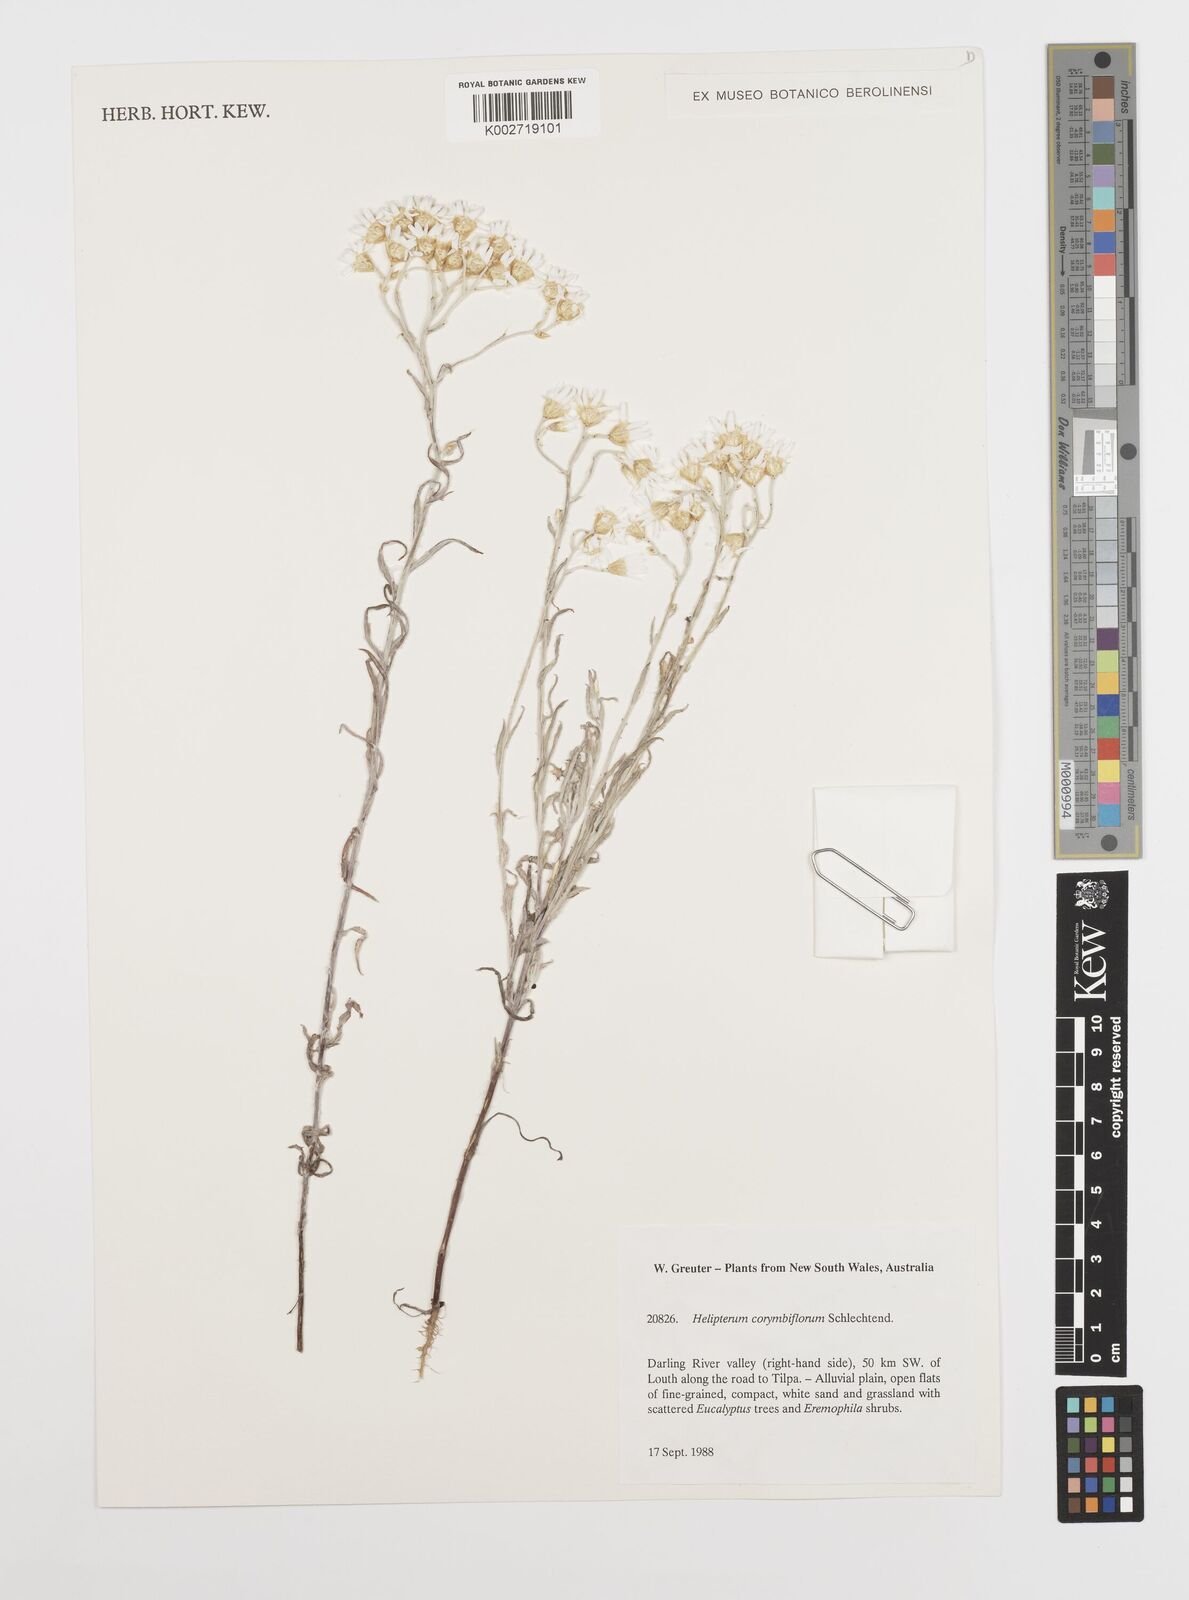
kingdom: Plantae
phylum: Tracheophyta
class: Magnoliopsida
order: Asterales
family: Asteraceae
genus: Rhodanthe
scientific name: Rhodanthe corymbiflora
